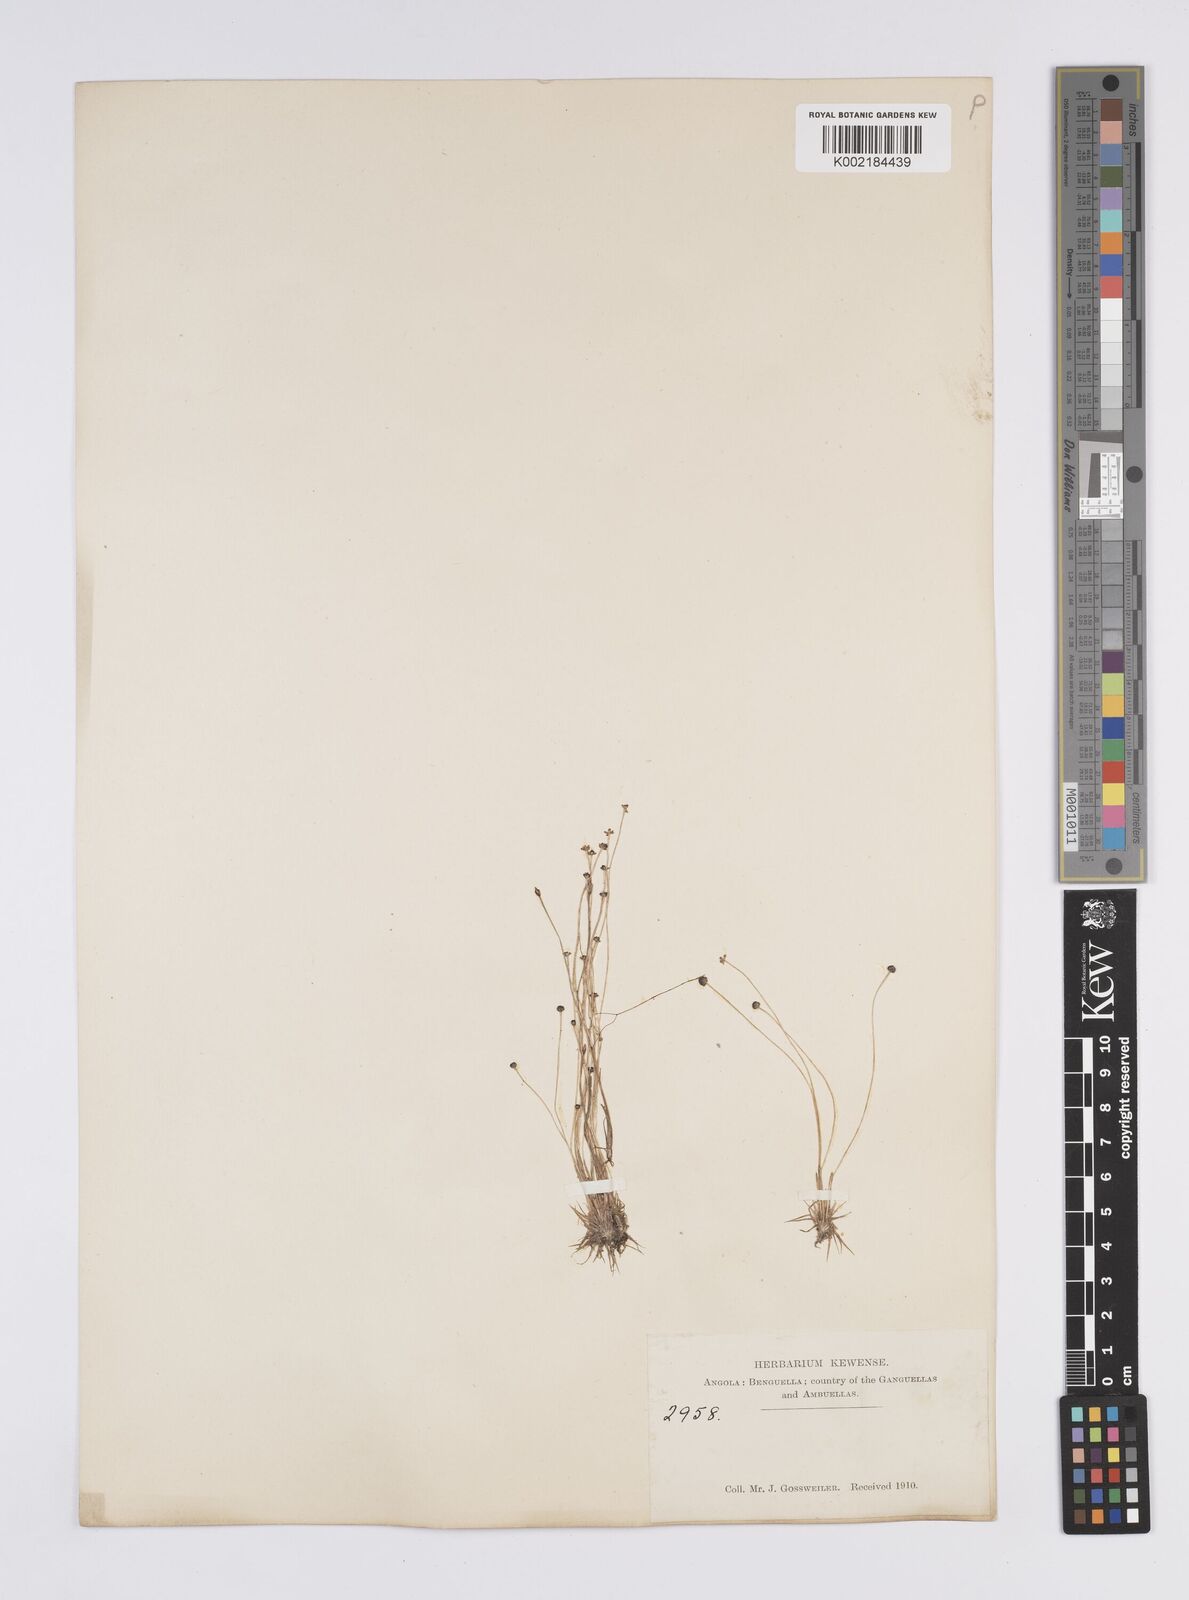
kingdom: Plantae
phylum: Tracheophyta
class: Liliopsida
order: Poales
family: Eriocaulaceae
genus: Eriocaulon
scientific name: Eriocaulon
